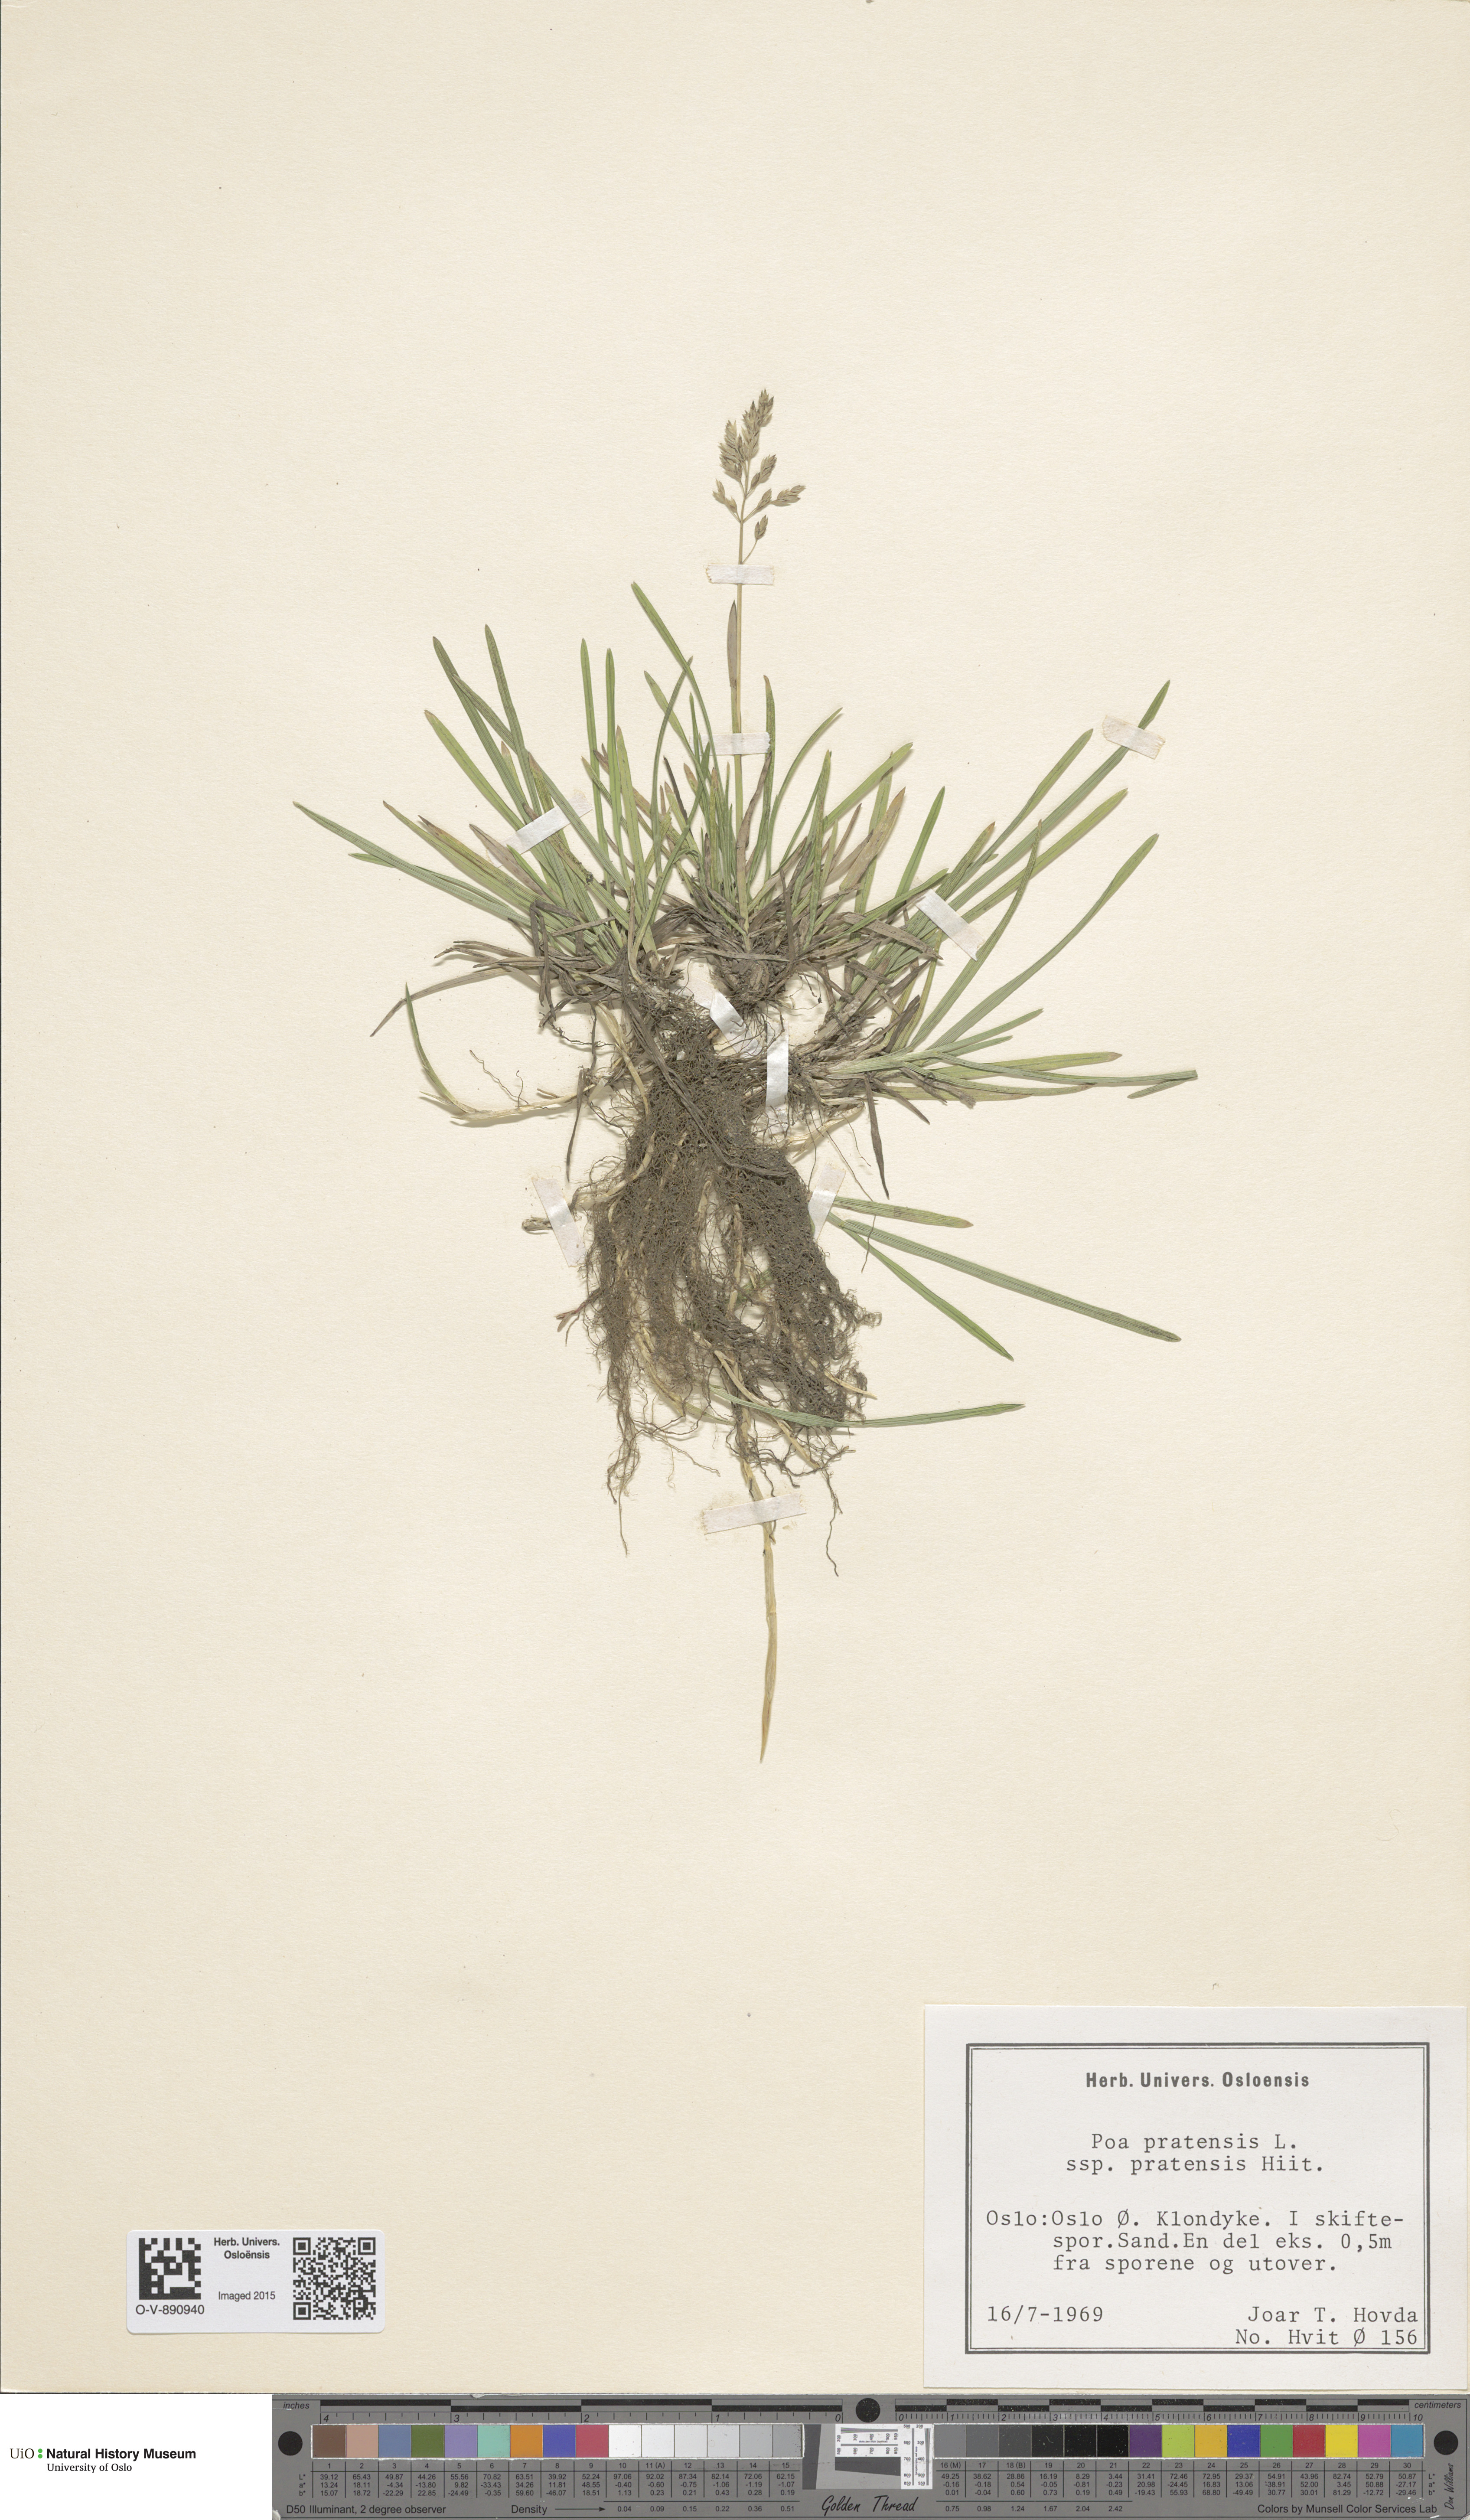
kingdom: Plantae
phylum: Tracheophyta
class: Liliopsida
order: Poales
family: Poaceae
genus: Poa
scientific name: Poa pratensis
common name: Kentucky bluegrass
